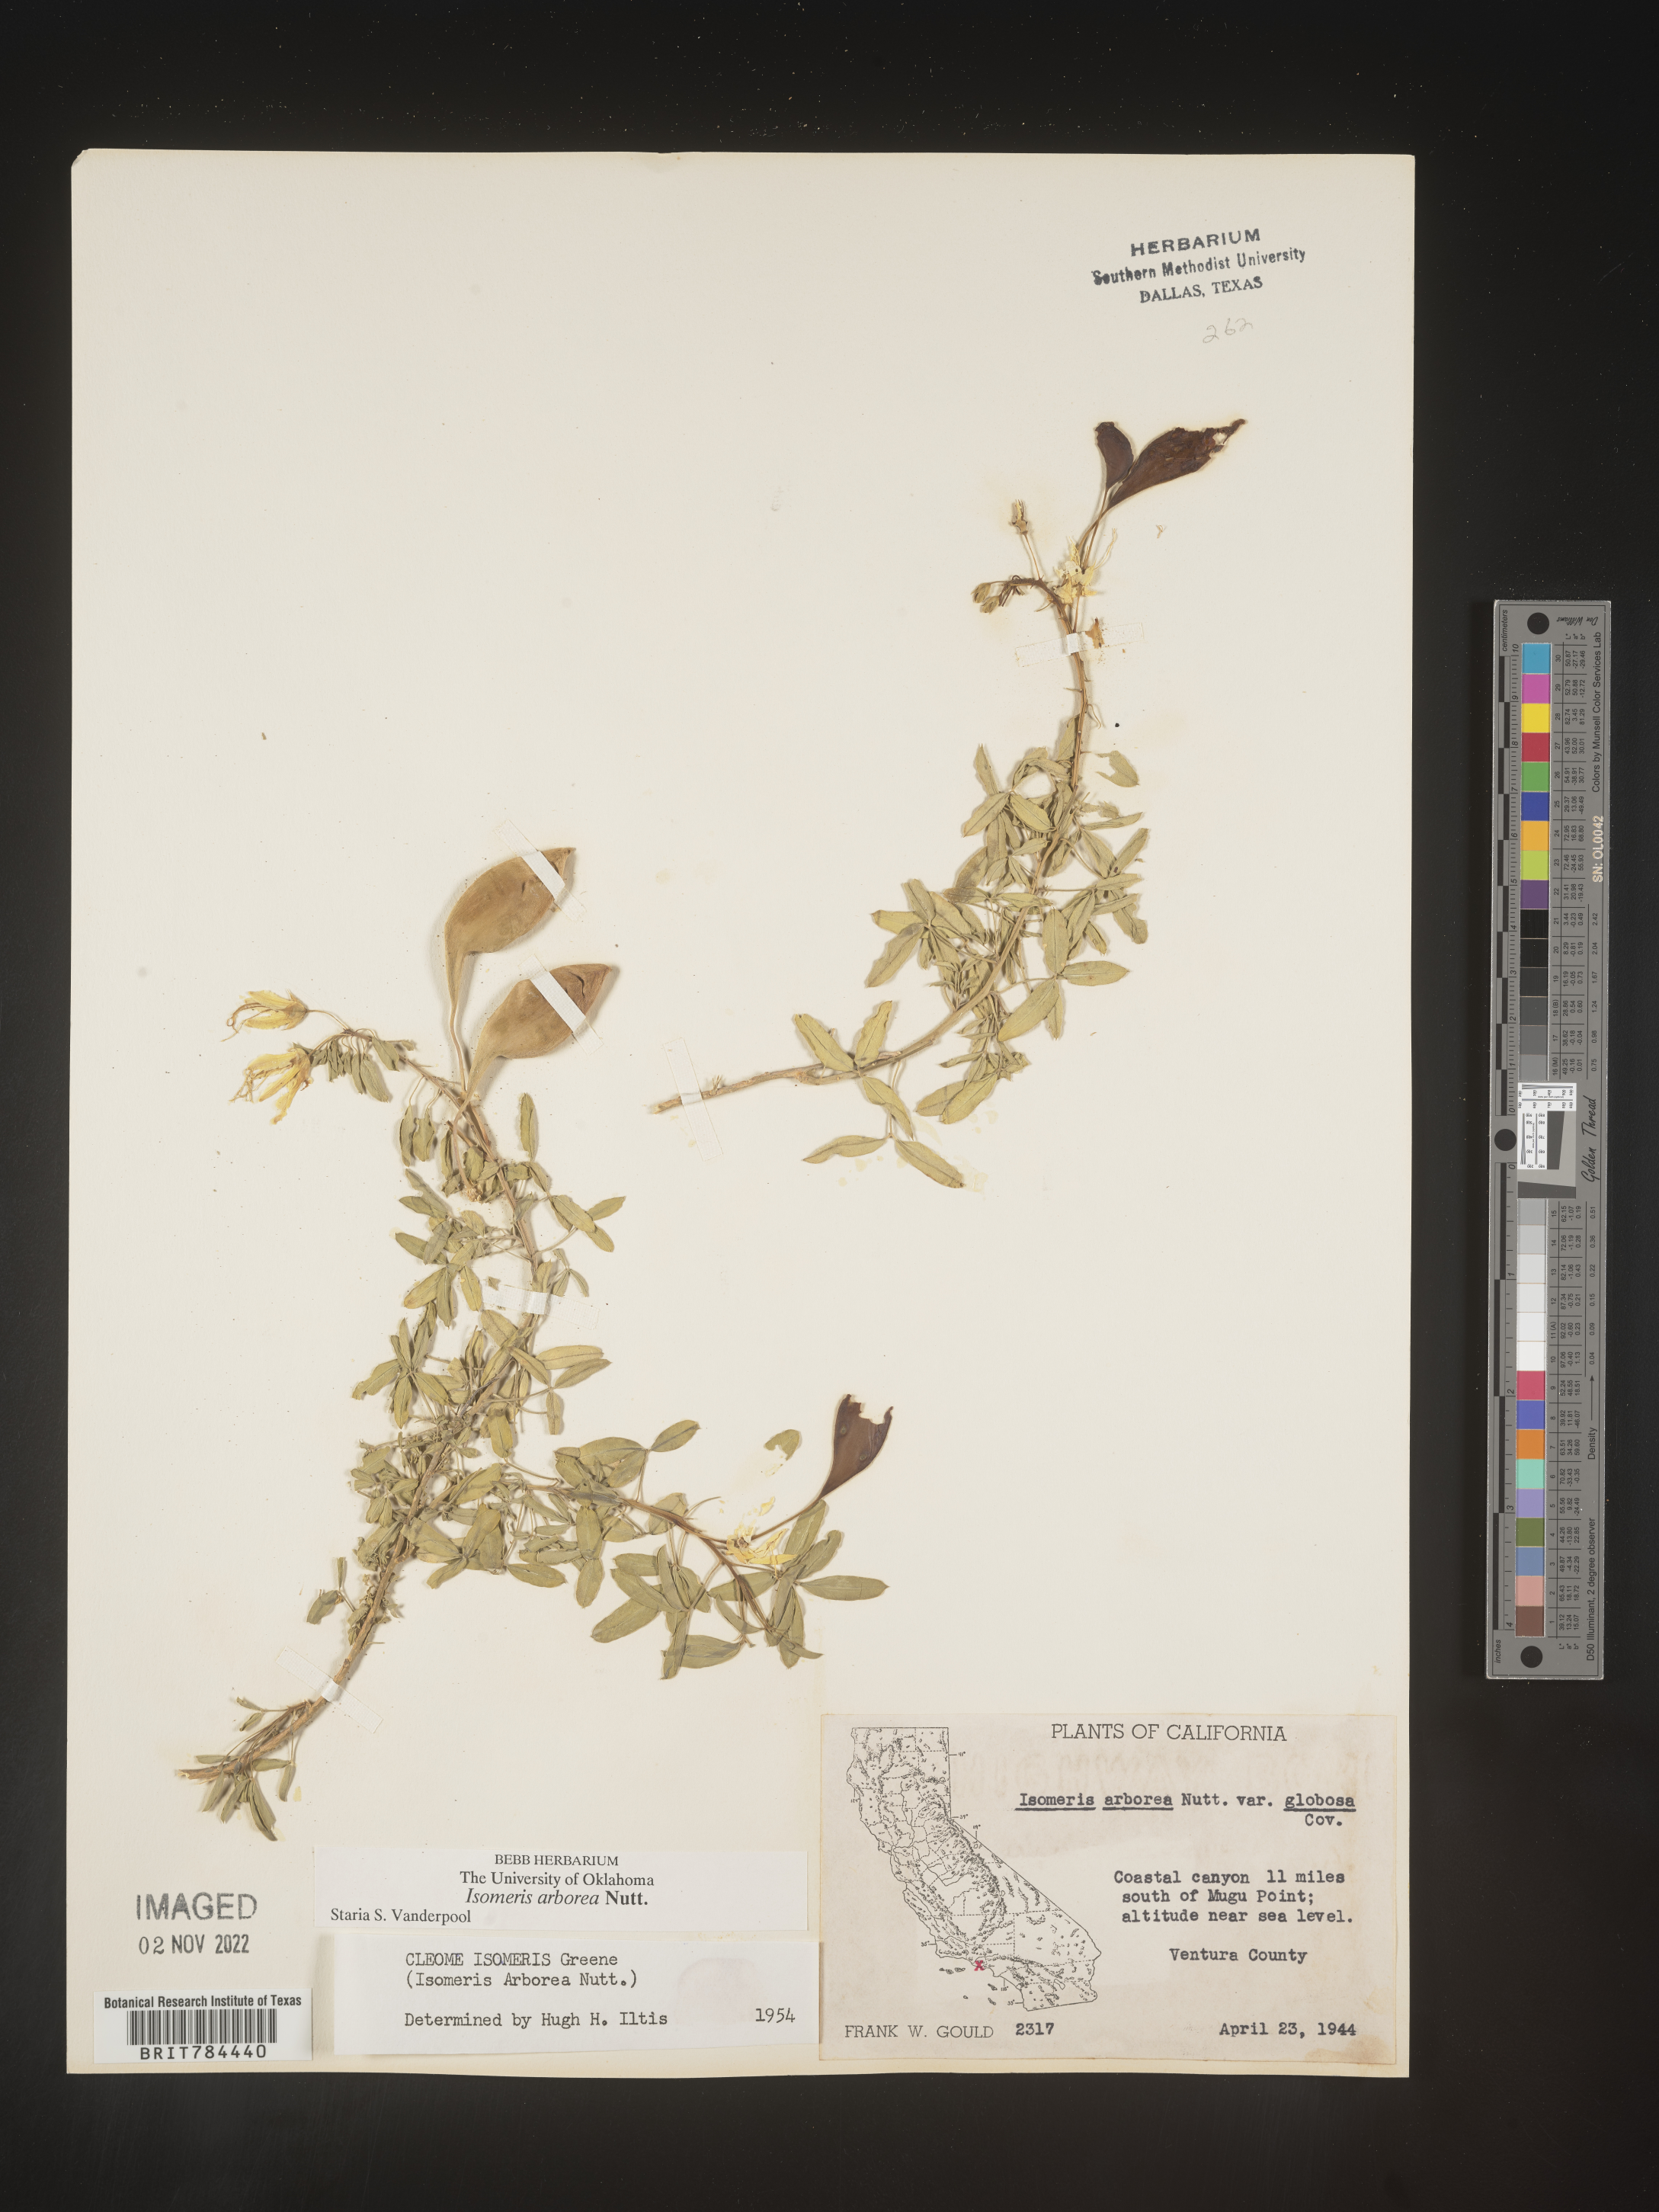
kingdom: Animalia
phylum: Arthropoda
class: Insecta
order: Hymenoptera
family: Ichneumonidae
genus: Isomeris
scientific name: Isomeris
